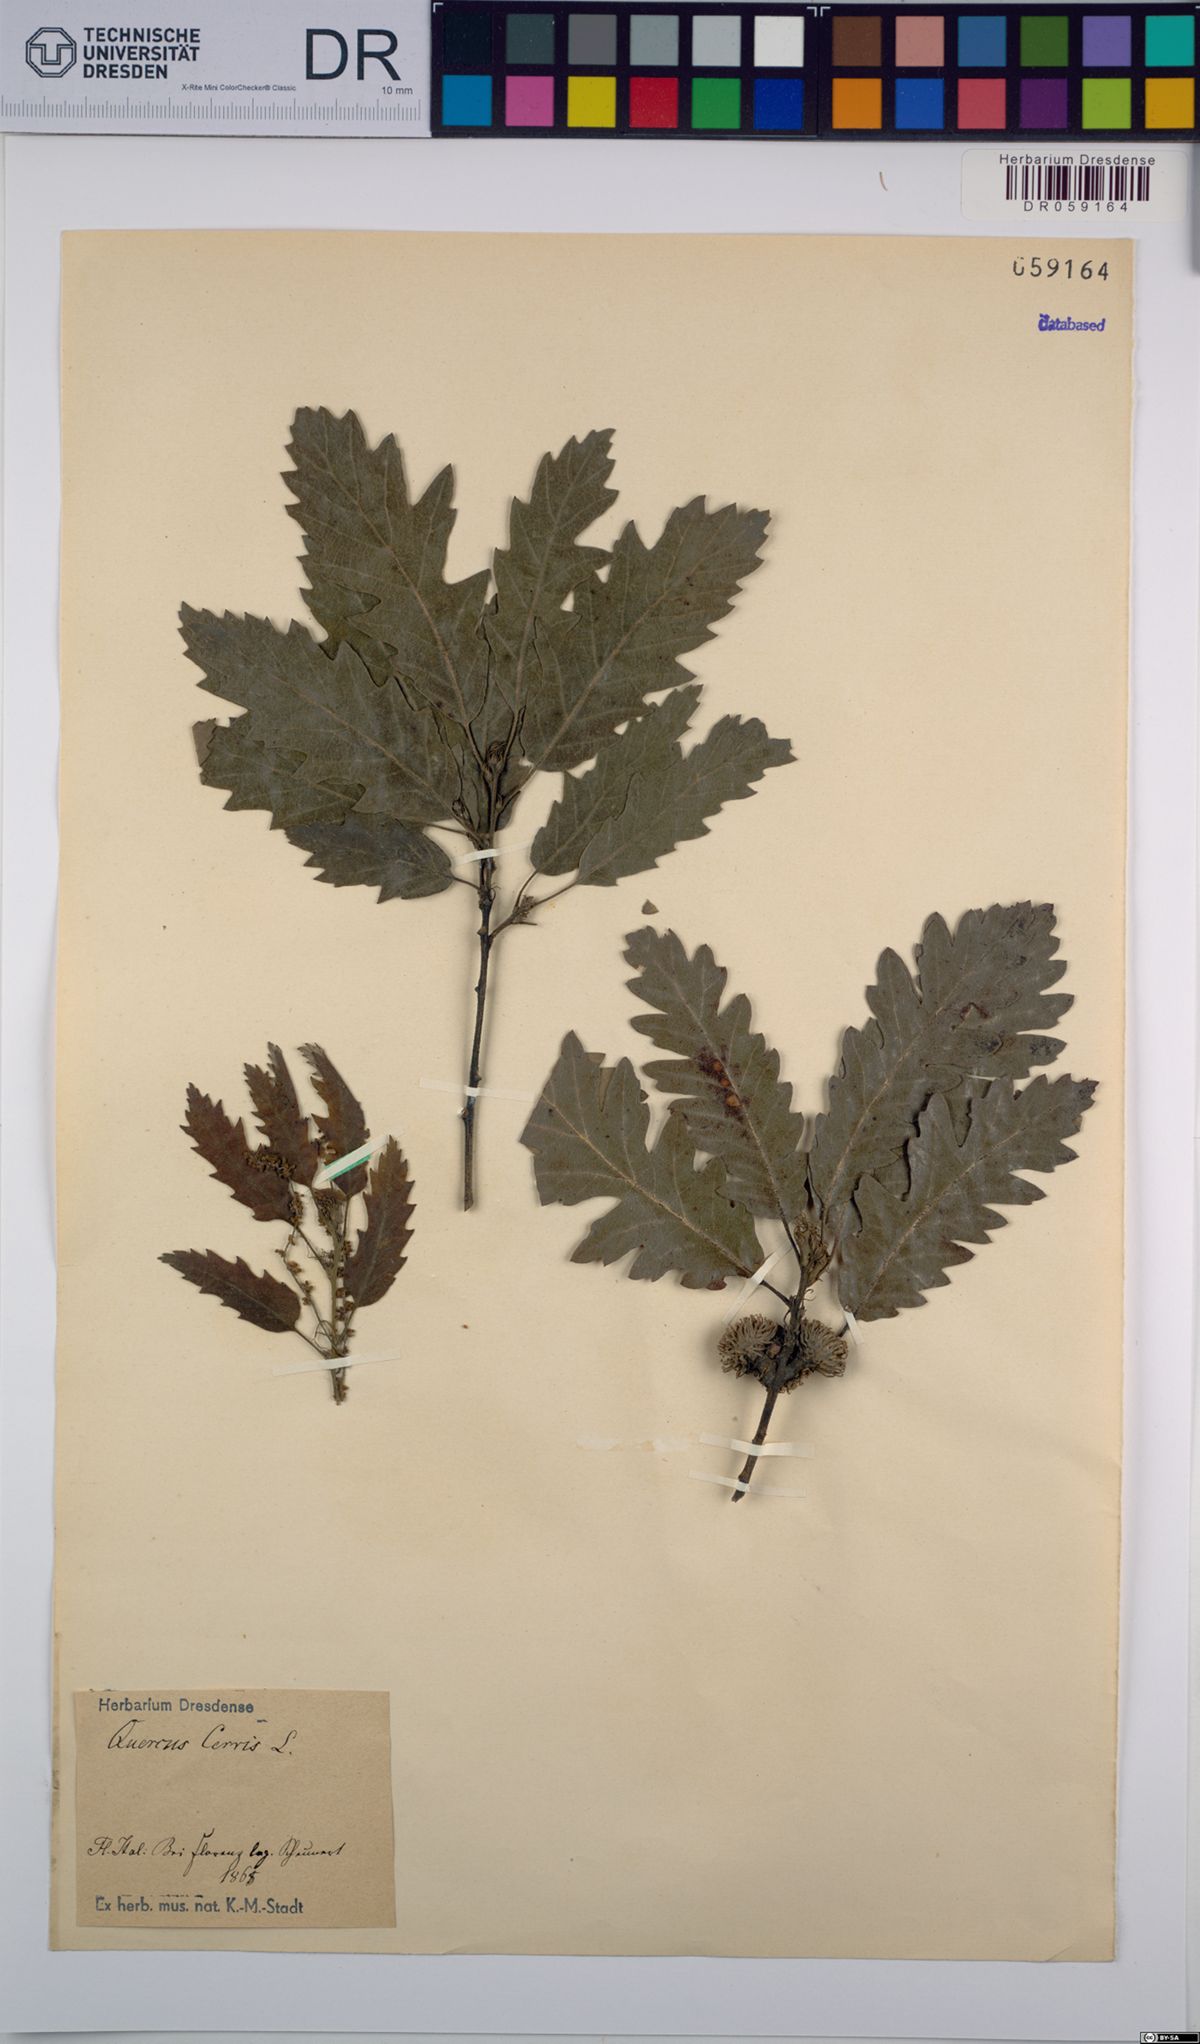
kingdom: Plantae
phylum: Tracheophyta
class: Magnoliopsida
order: Fagales
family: Fagaceae
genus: Quercus
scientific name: Quercus cerris
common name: Turkey oak
